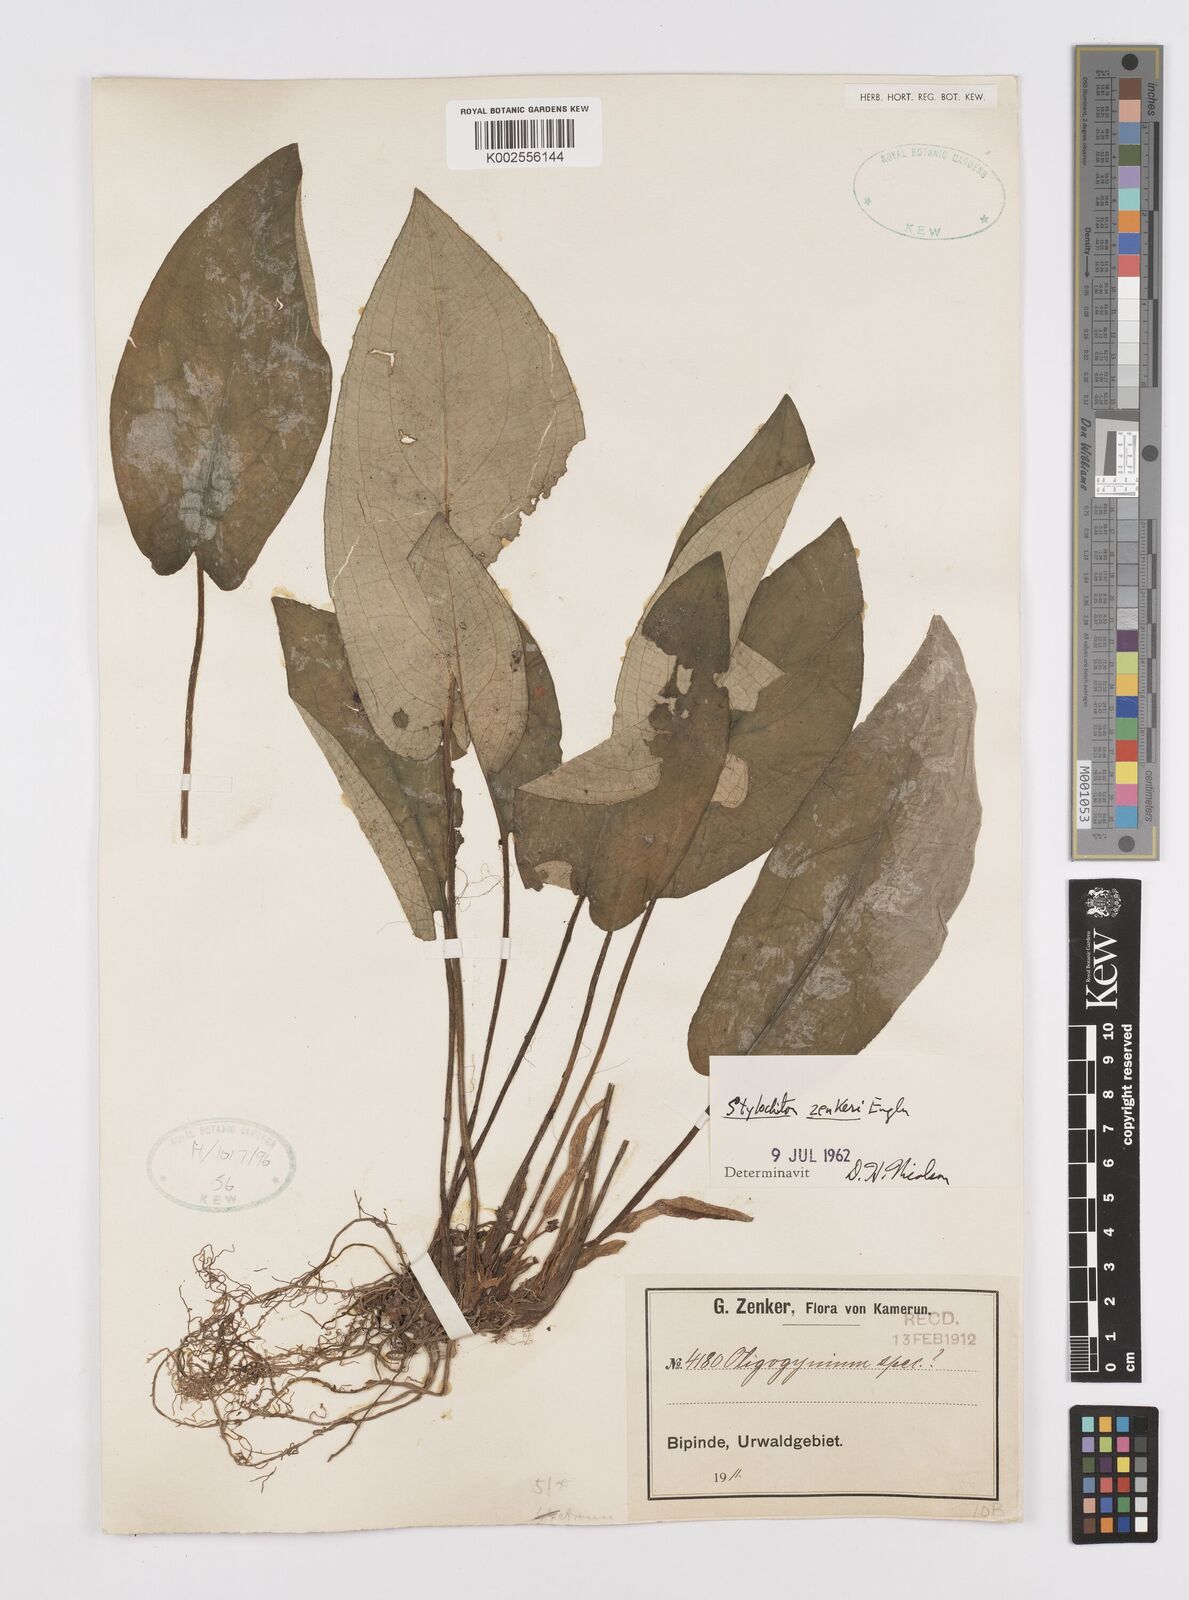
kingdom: Plantae
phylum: Tracheophyta
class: Liliopsida
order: Alismatales
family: Araceae
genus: Stylochaeton
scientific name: Stylochaeton zenkeri
